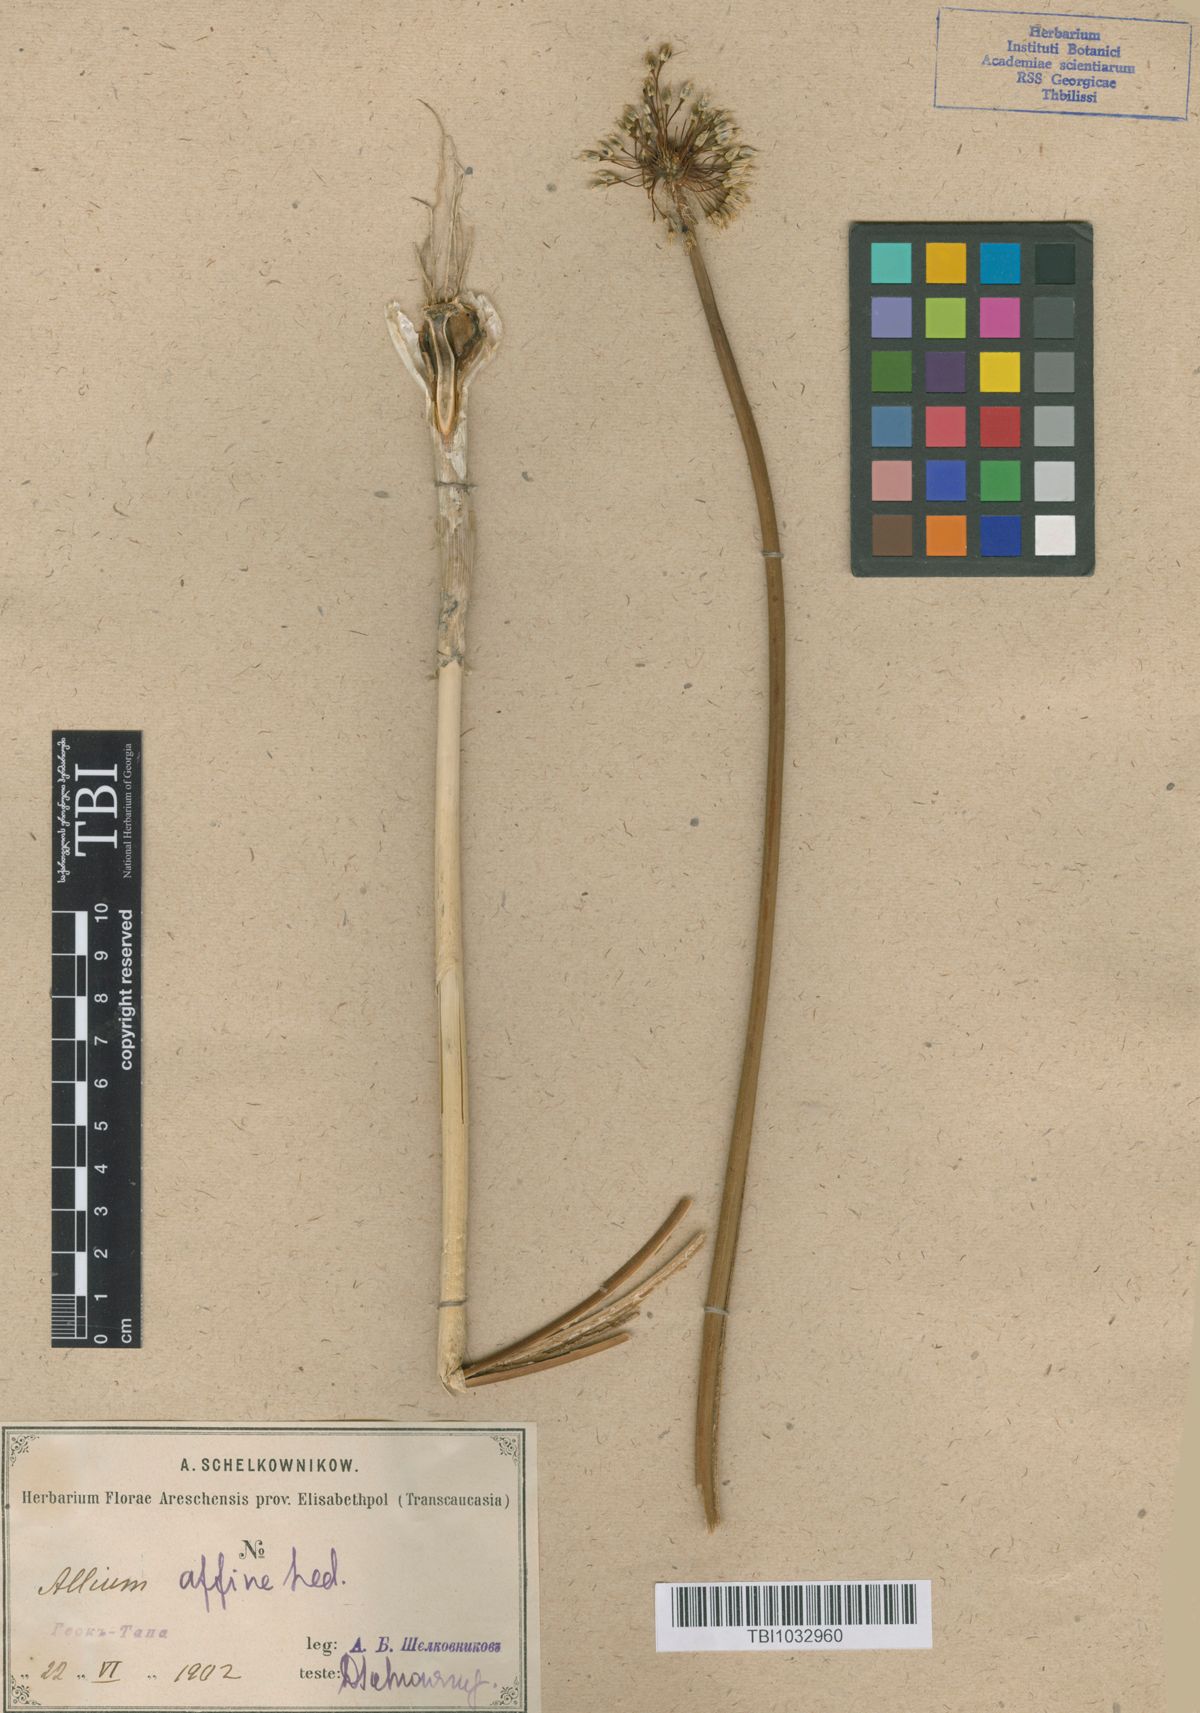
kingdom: Plantae
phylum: Tracheophyta
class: Liliopsida
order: Asparagales
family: Amaryllidaceae
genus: Allium
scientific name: Allium affine
